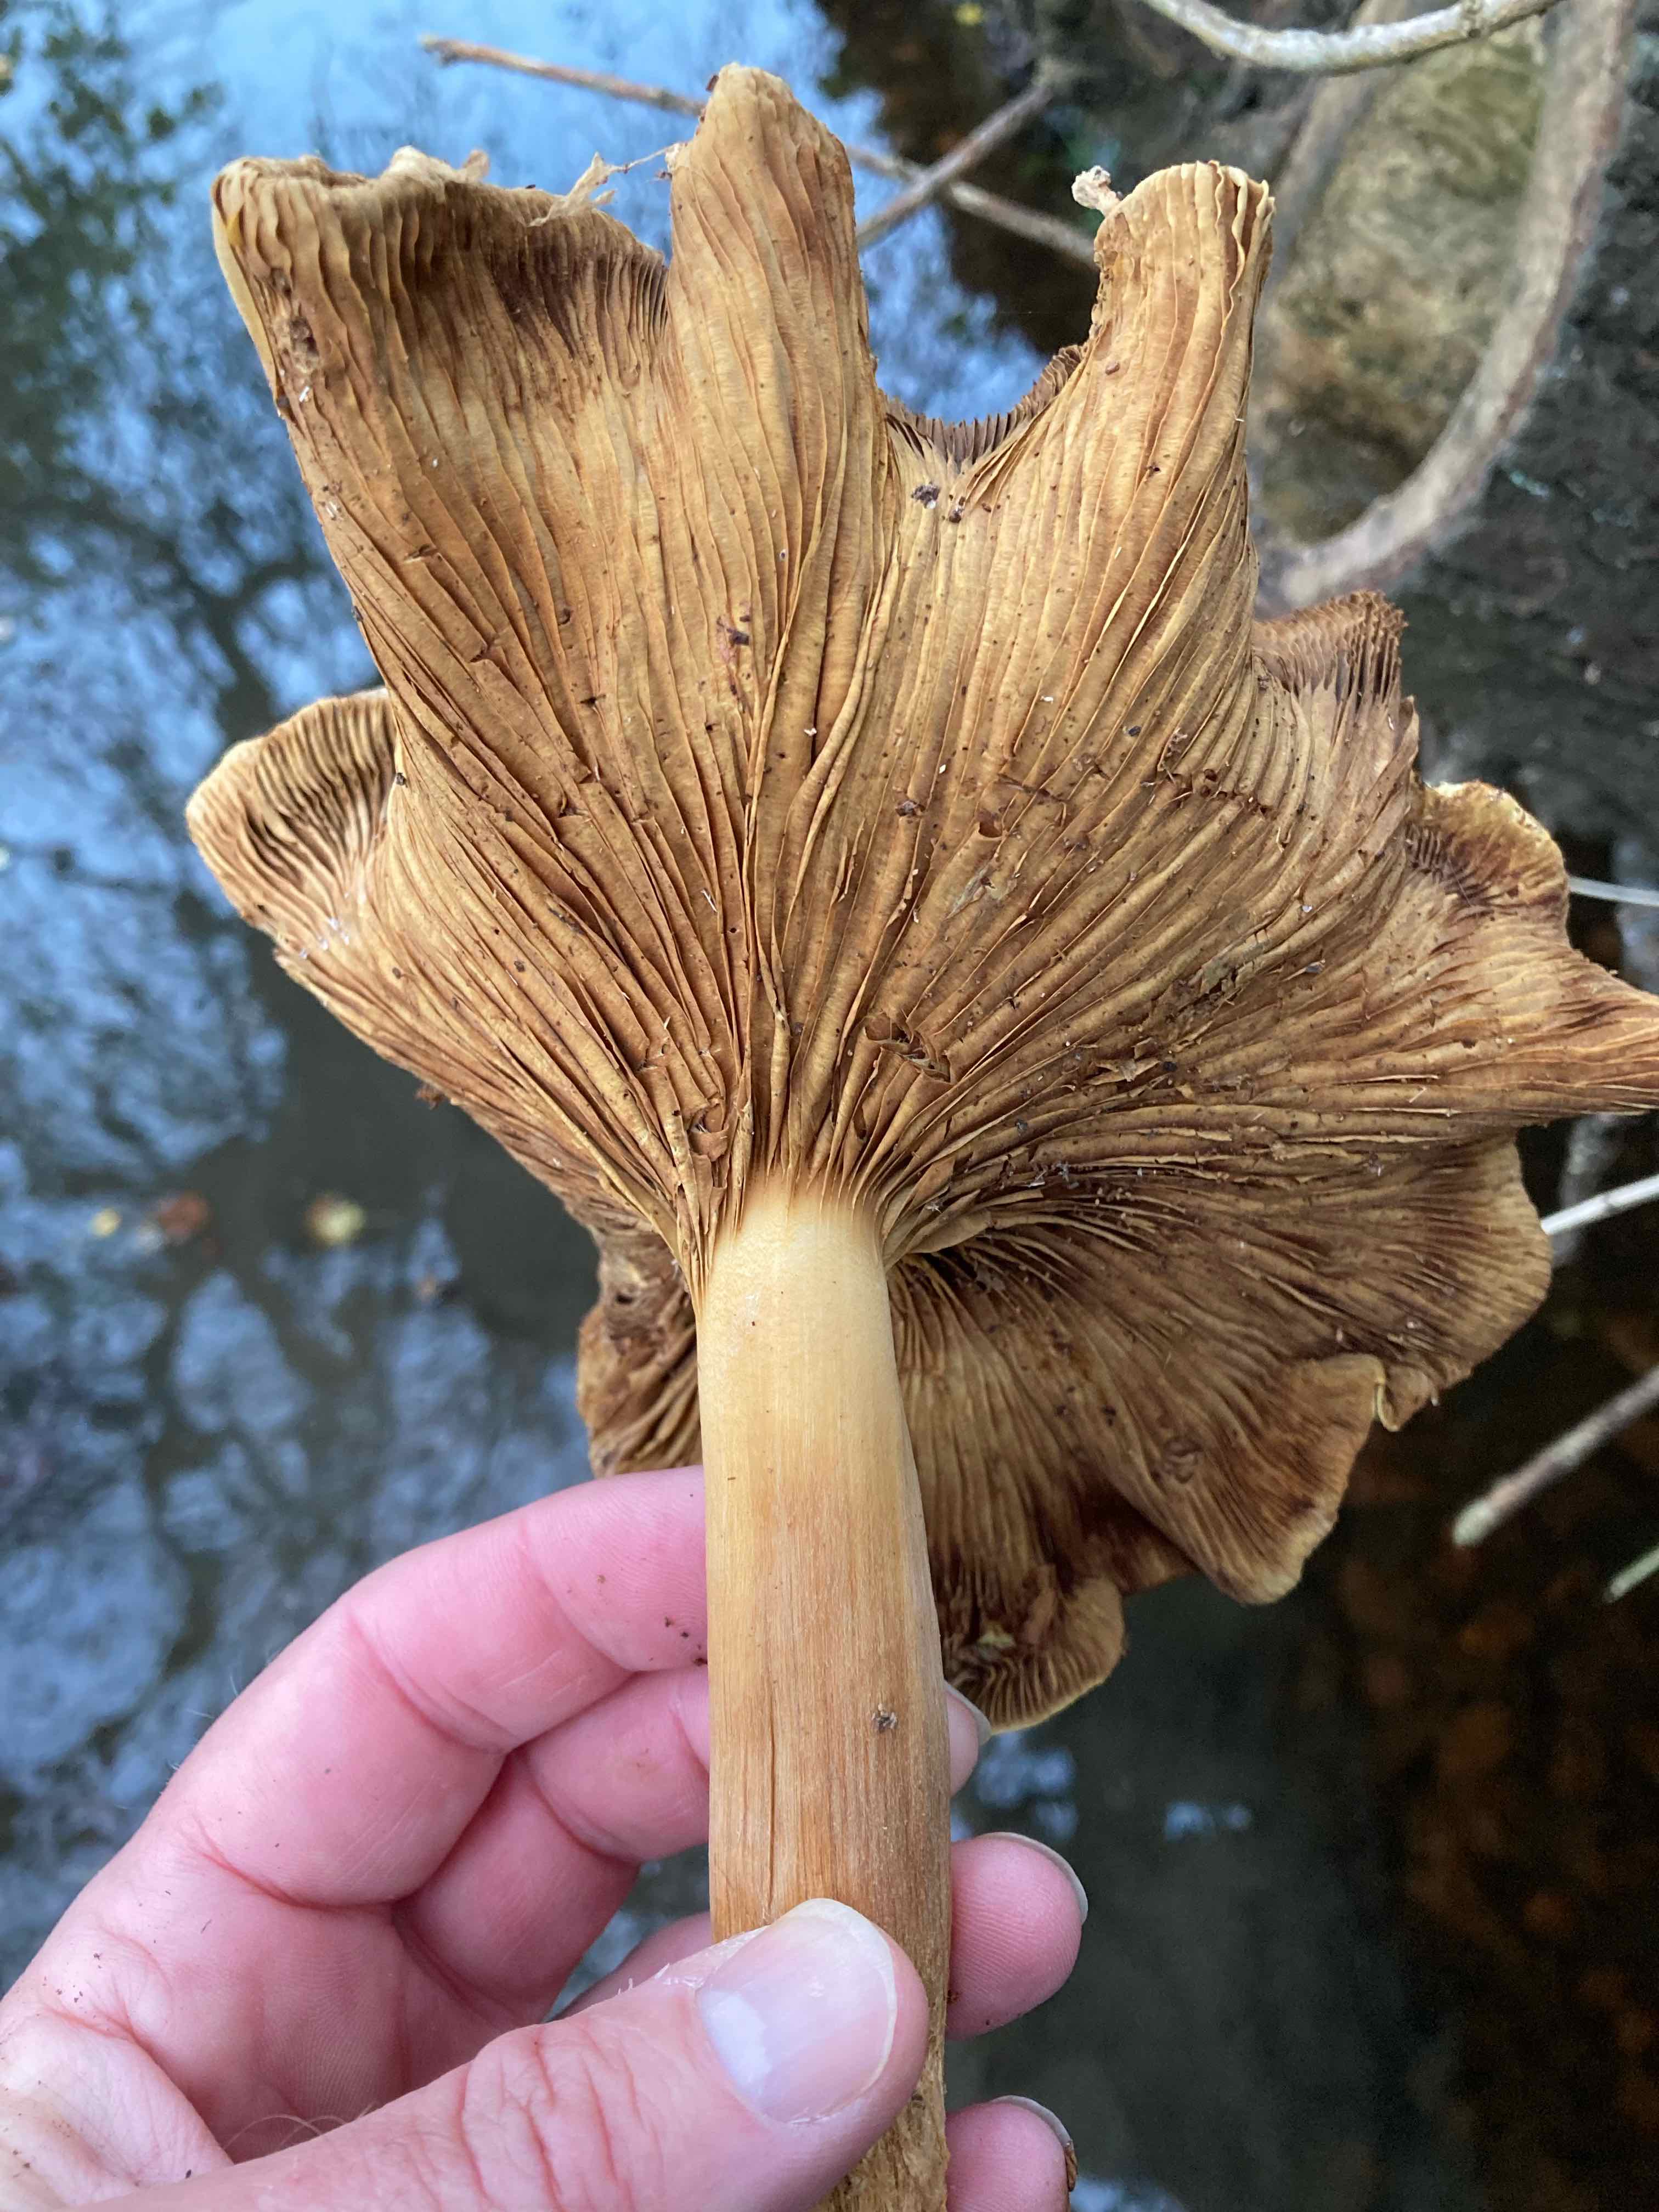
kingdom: Fungi
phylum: Basidiomycota
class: Agaricomycetes
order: Agaricales
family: Strophariaceae
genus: Pholiota
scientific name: Pholiota squarrosa
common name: krumskællet skælhat
